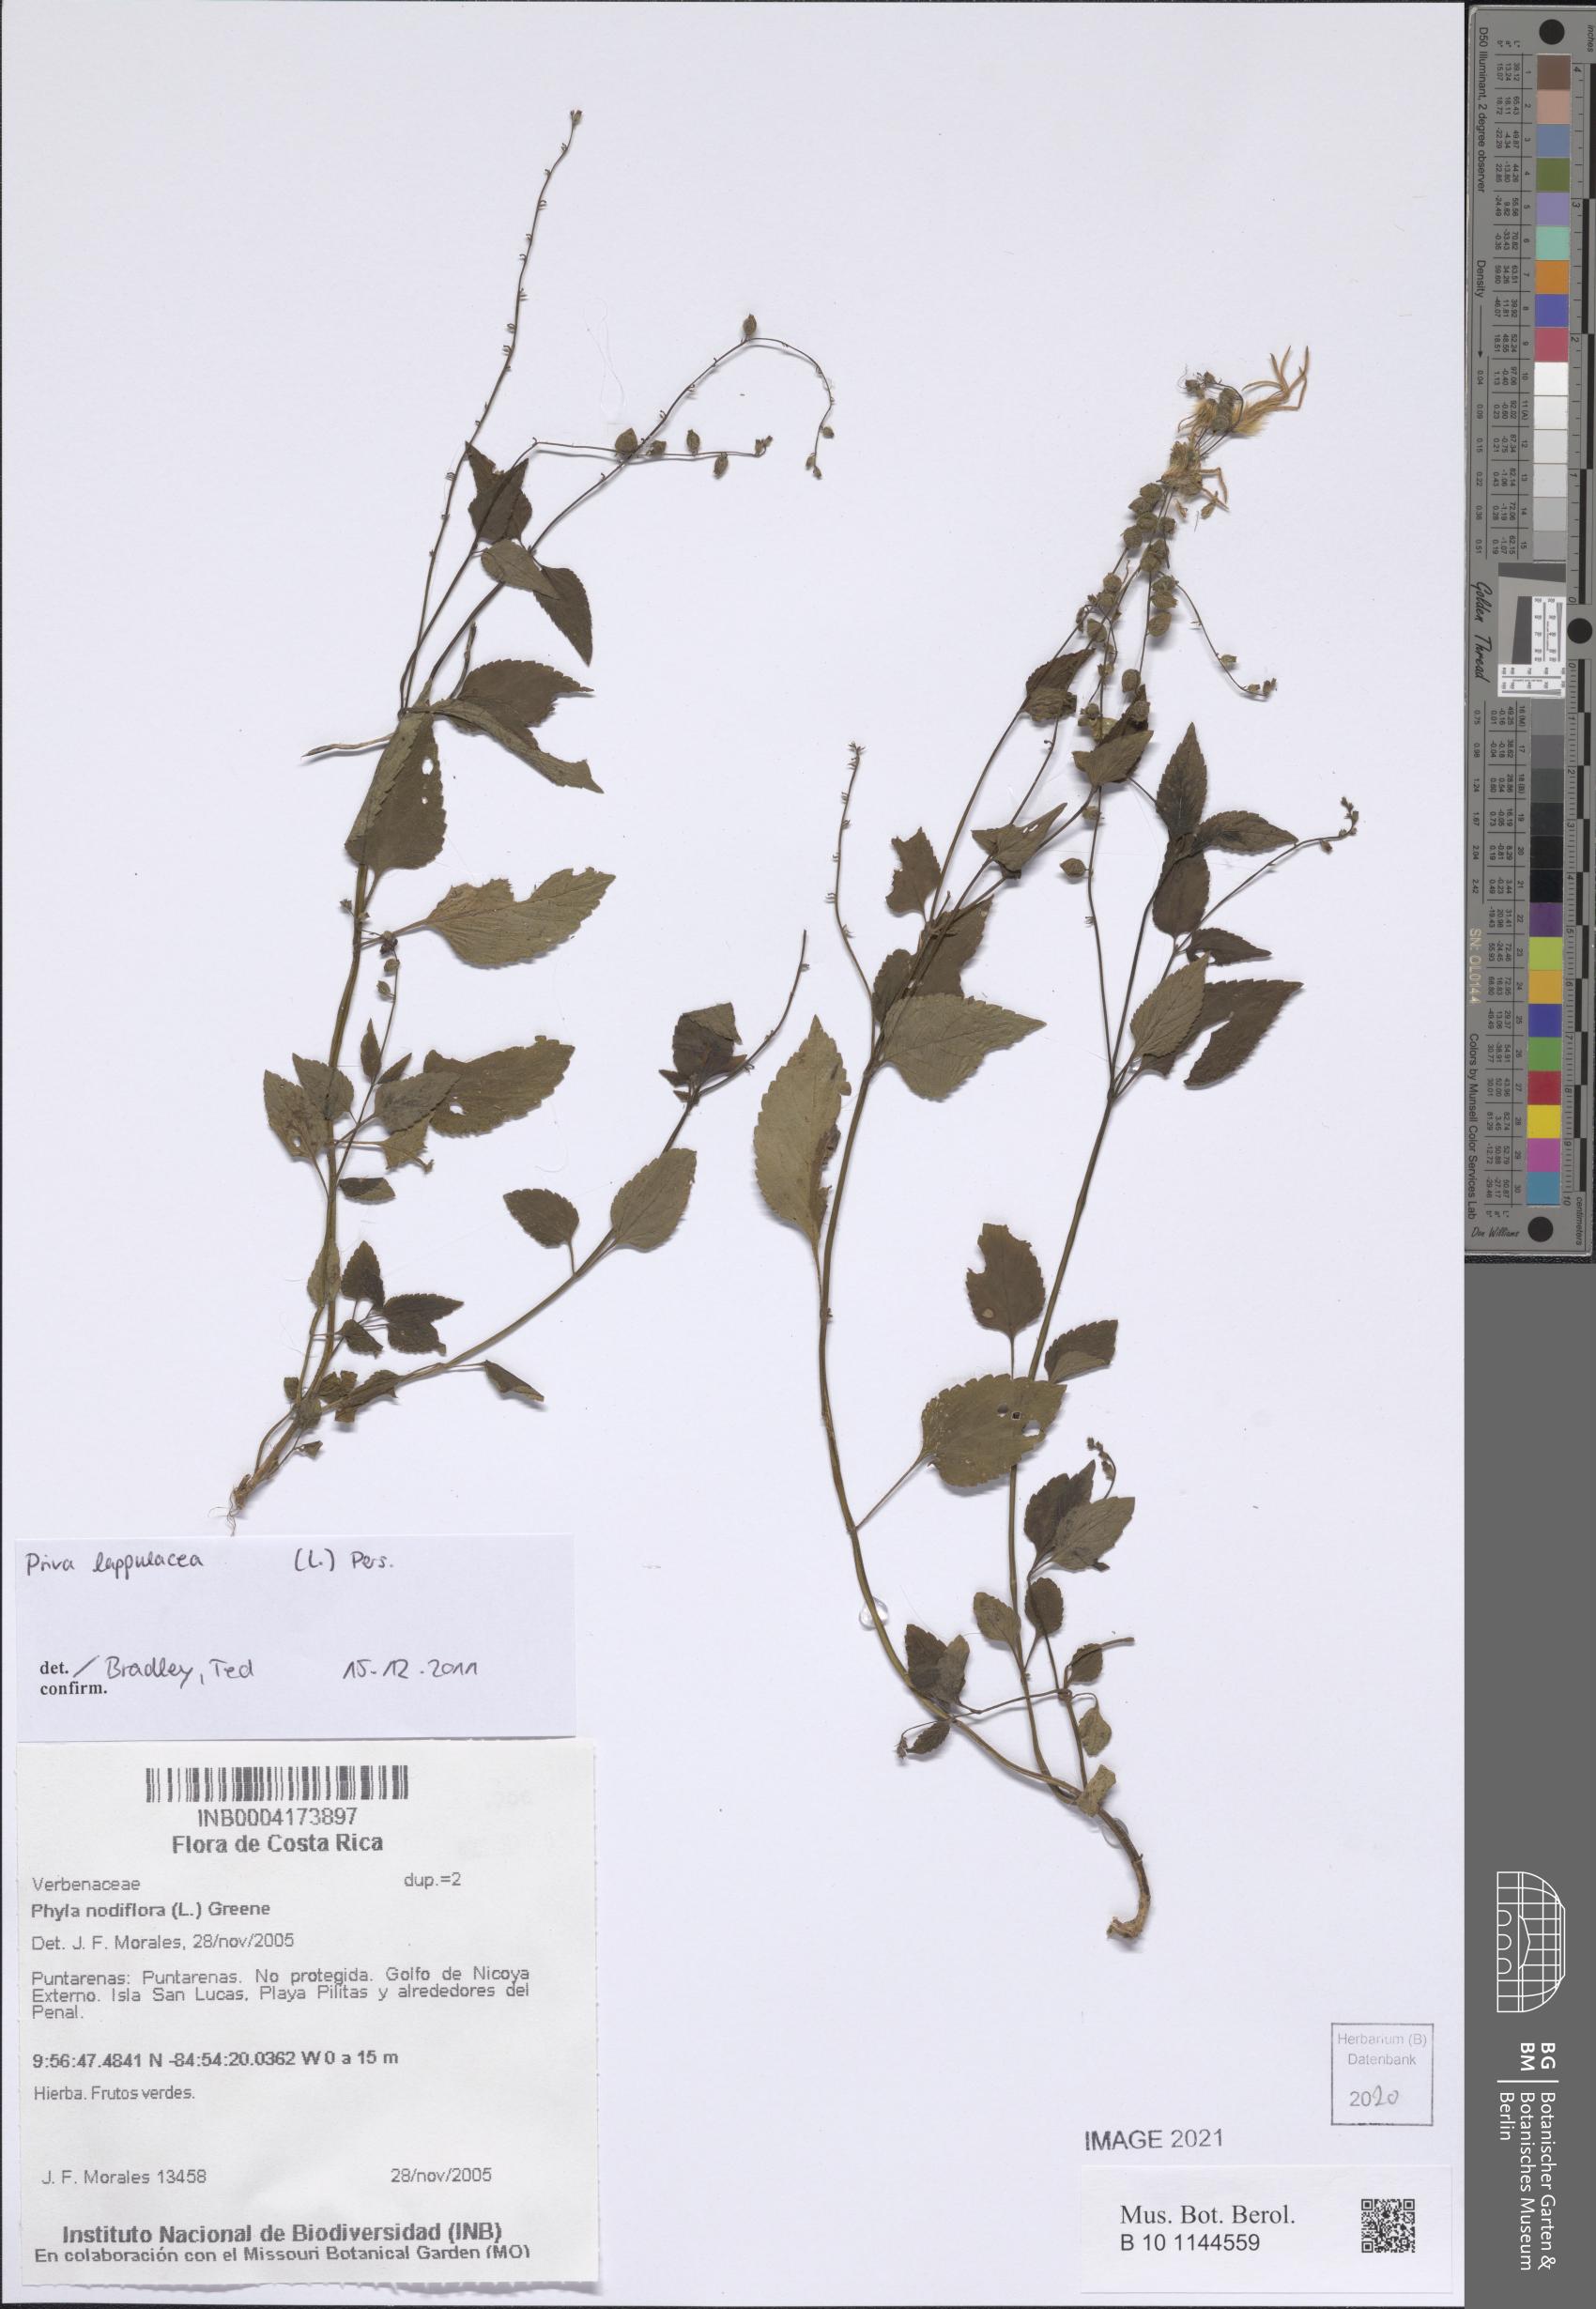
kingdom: Plantae
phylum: Tracheophyta
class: Magnoliopsida
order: Lamiales
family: Verbenaceae
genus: Priva
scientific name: Priva lappulacea
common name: Fasten-'pon-coat
